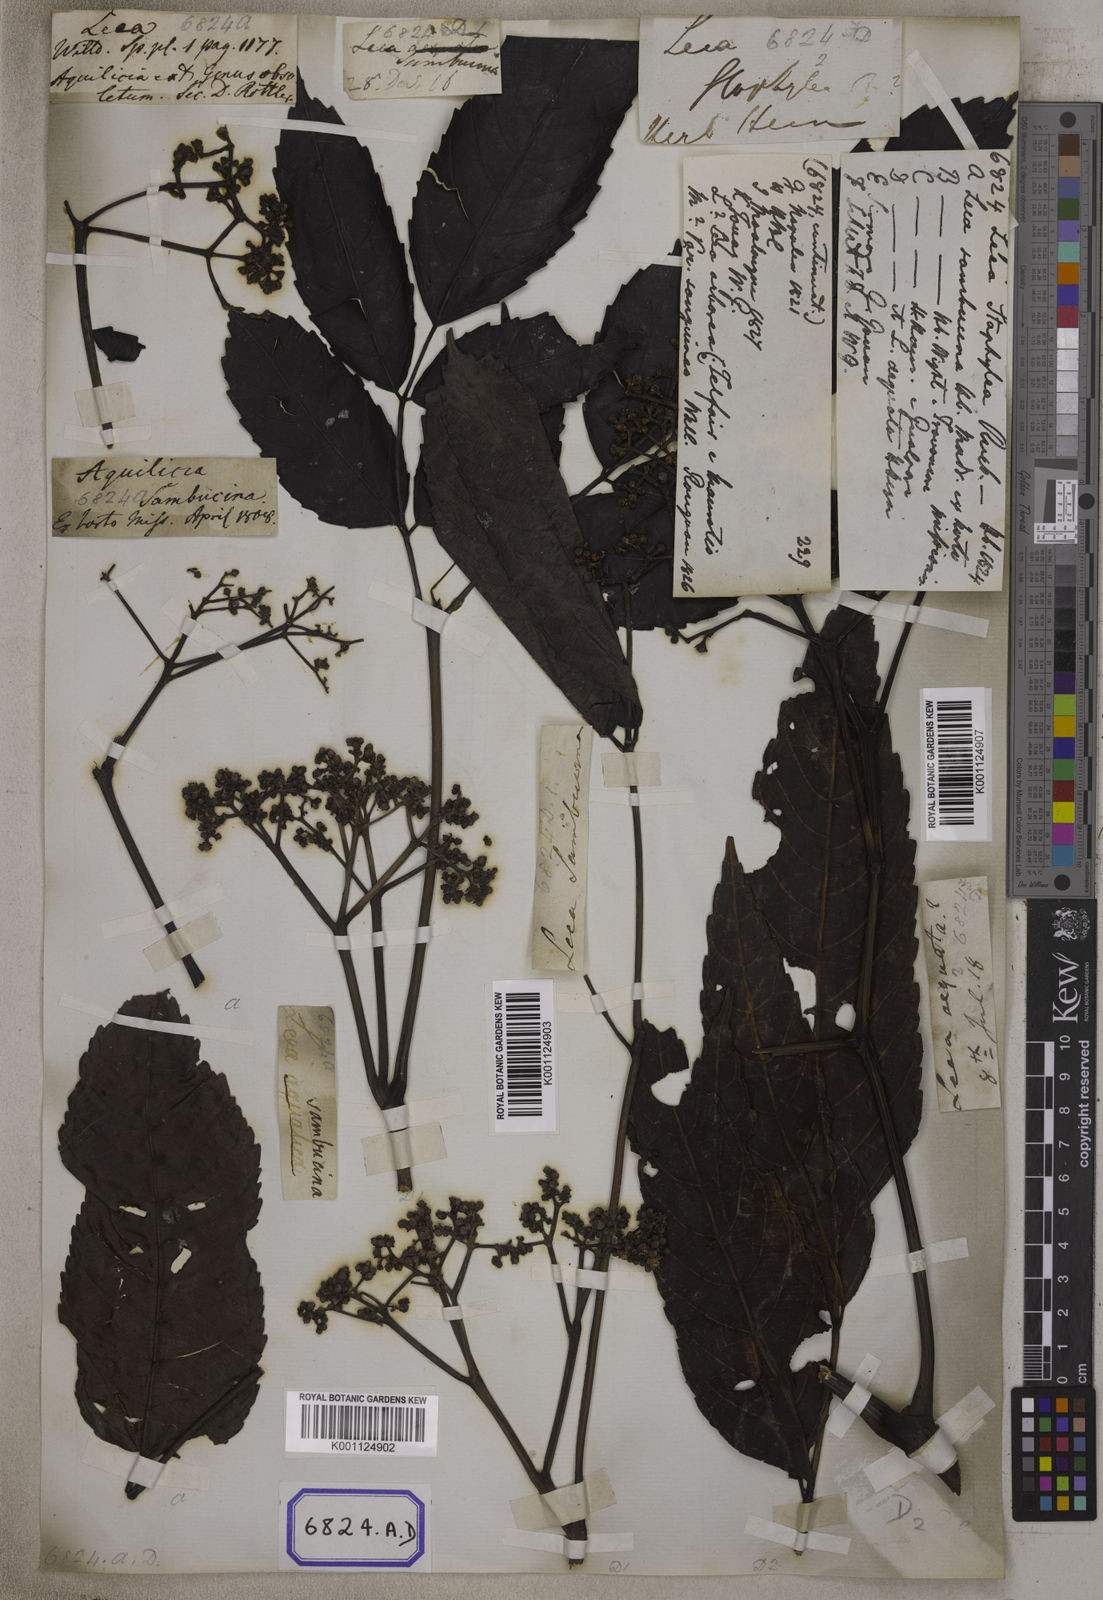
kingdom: Plantae
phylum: Tracheophyta
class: Magnoliopsida
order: Vitales
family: Vitaceae
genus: Leea
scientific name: Leea
